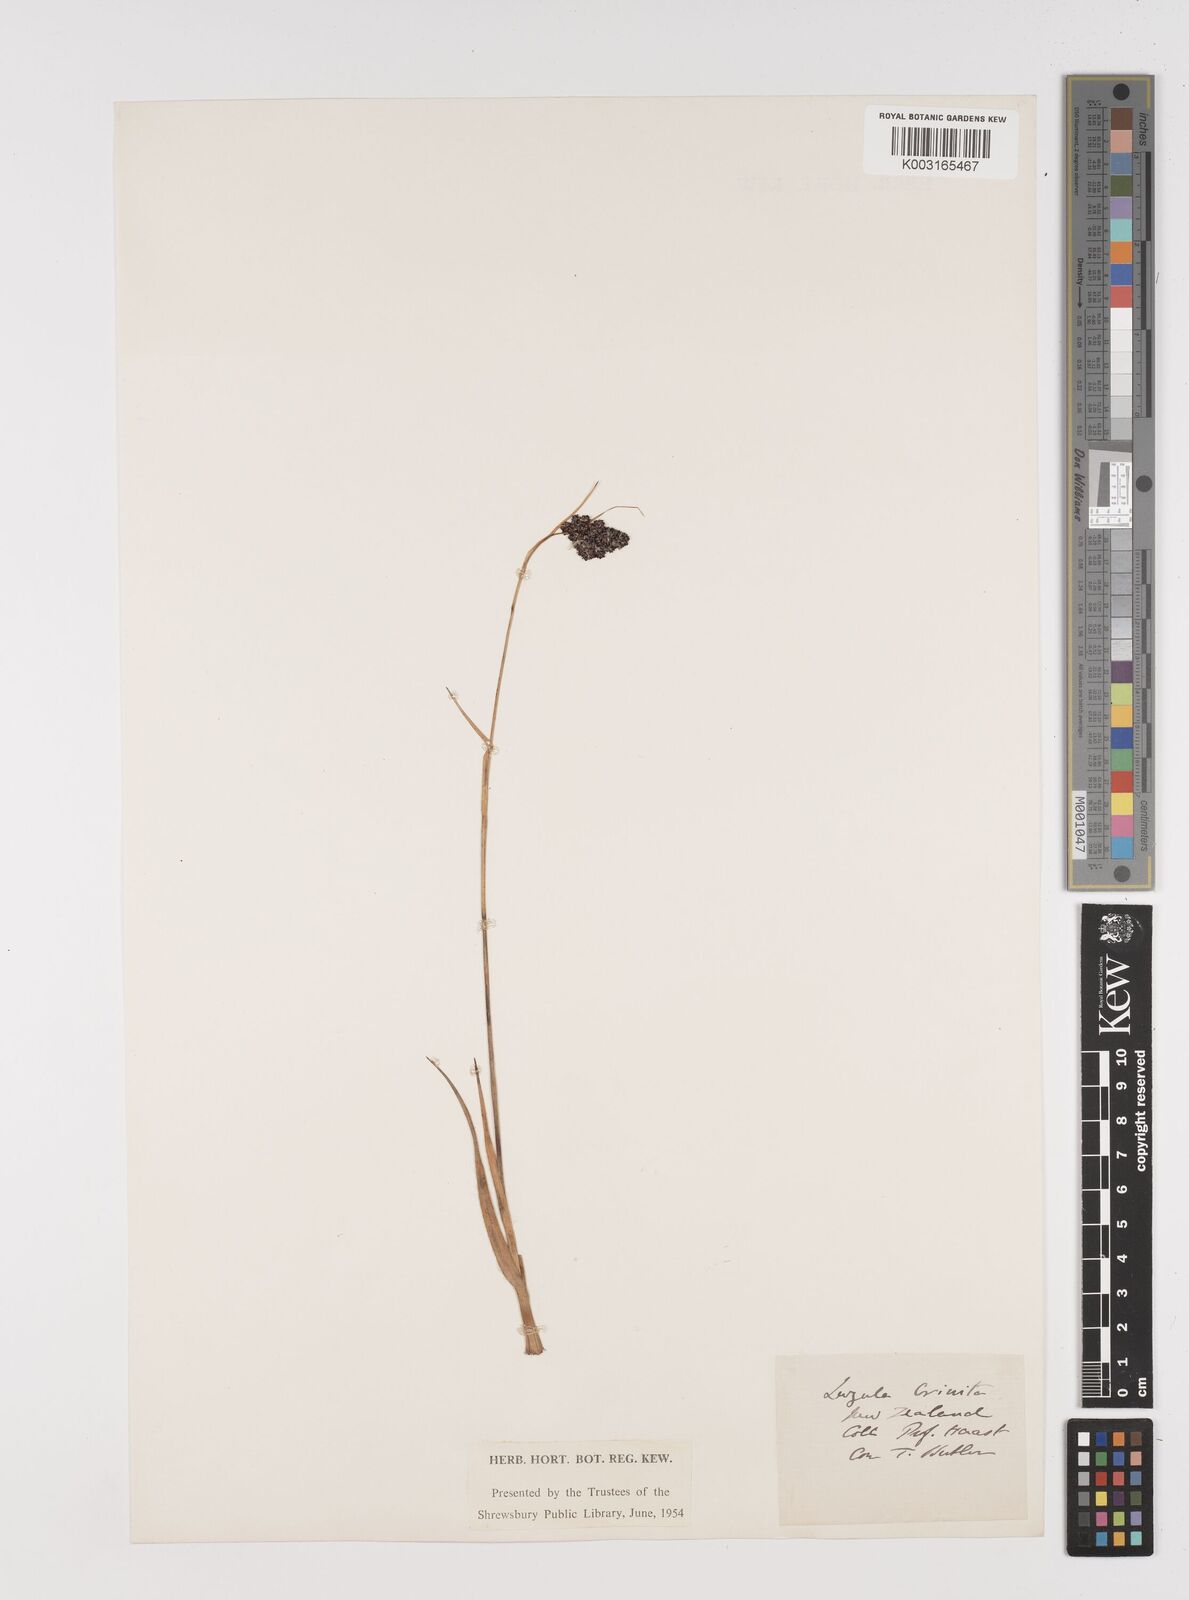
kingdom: Plantae
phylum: Tracheophyta
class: Liliopsida
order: Poales
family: Juncaceae
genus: Luzula
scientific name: Luzula crinita
